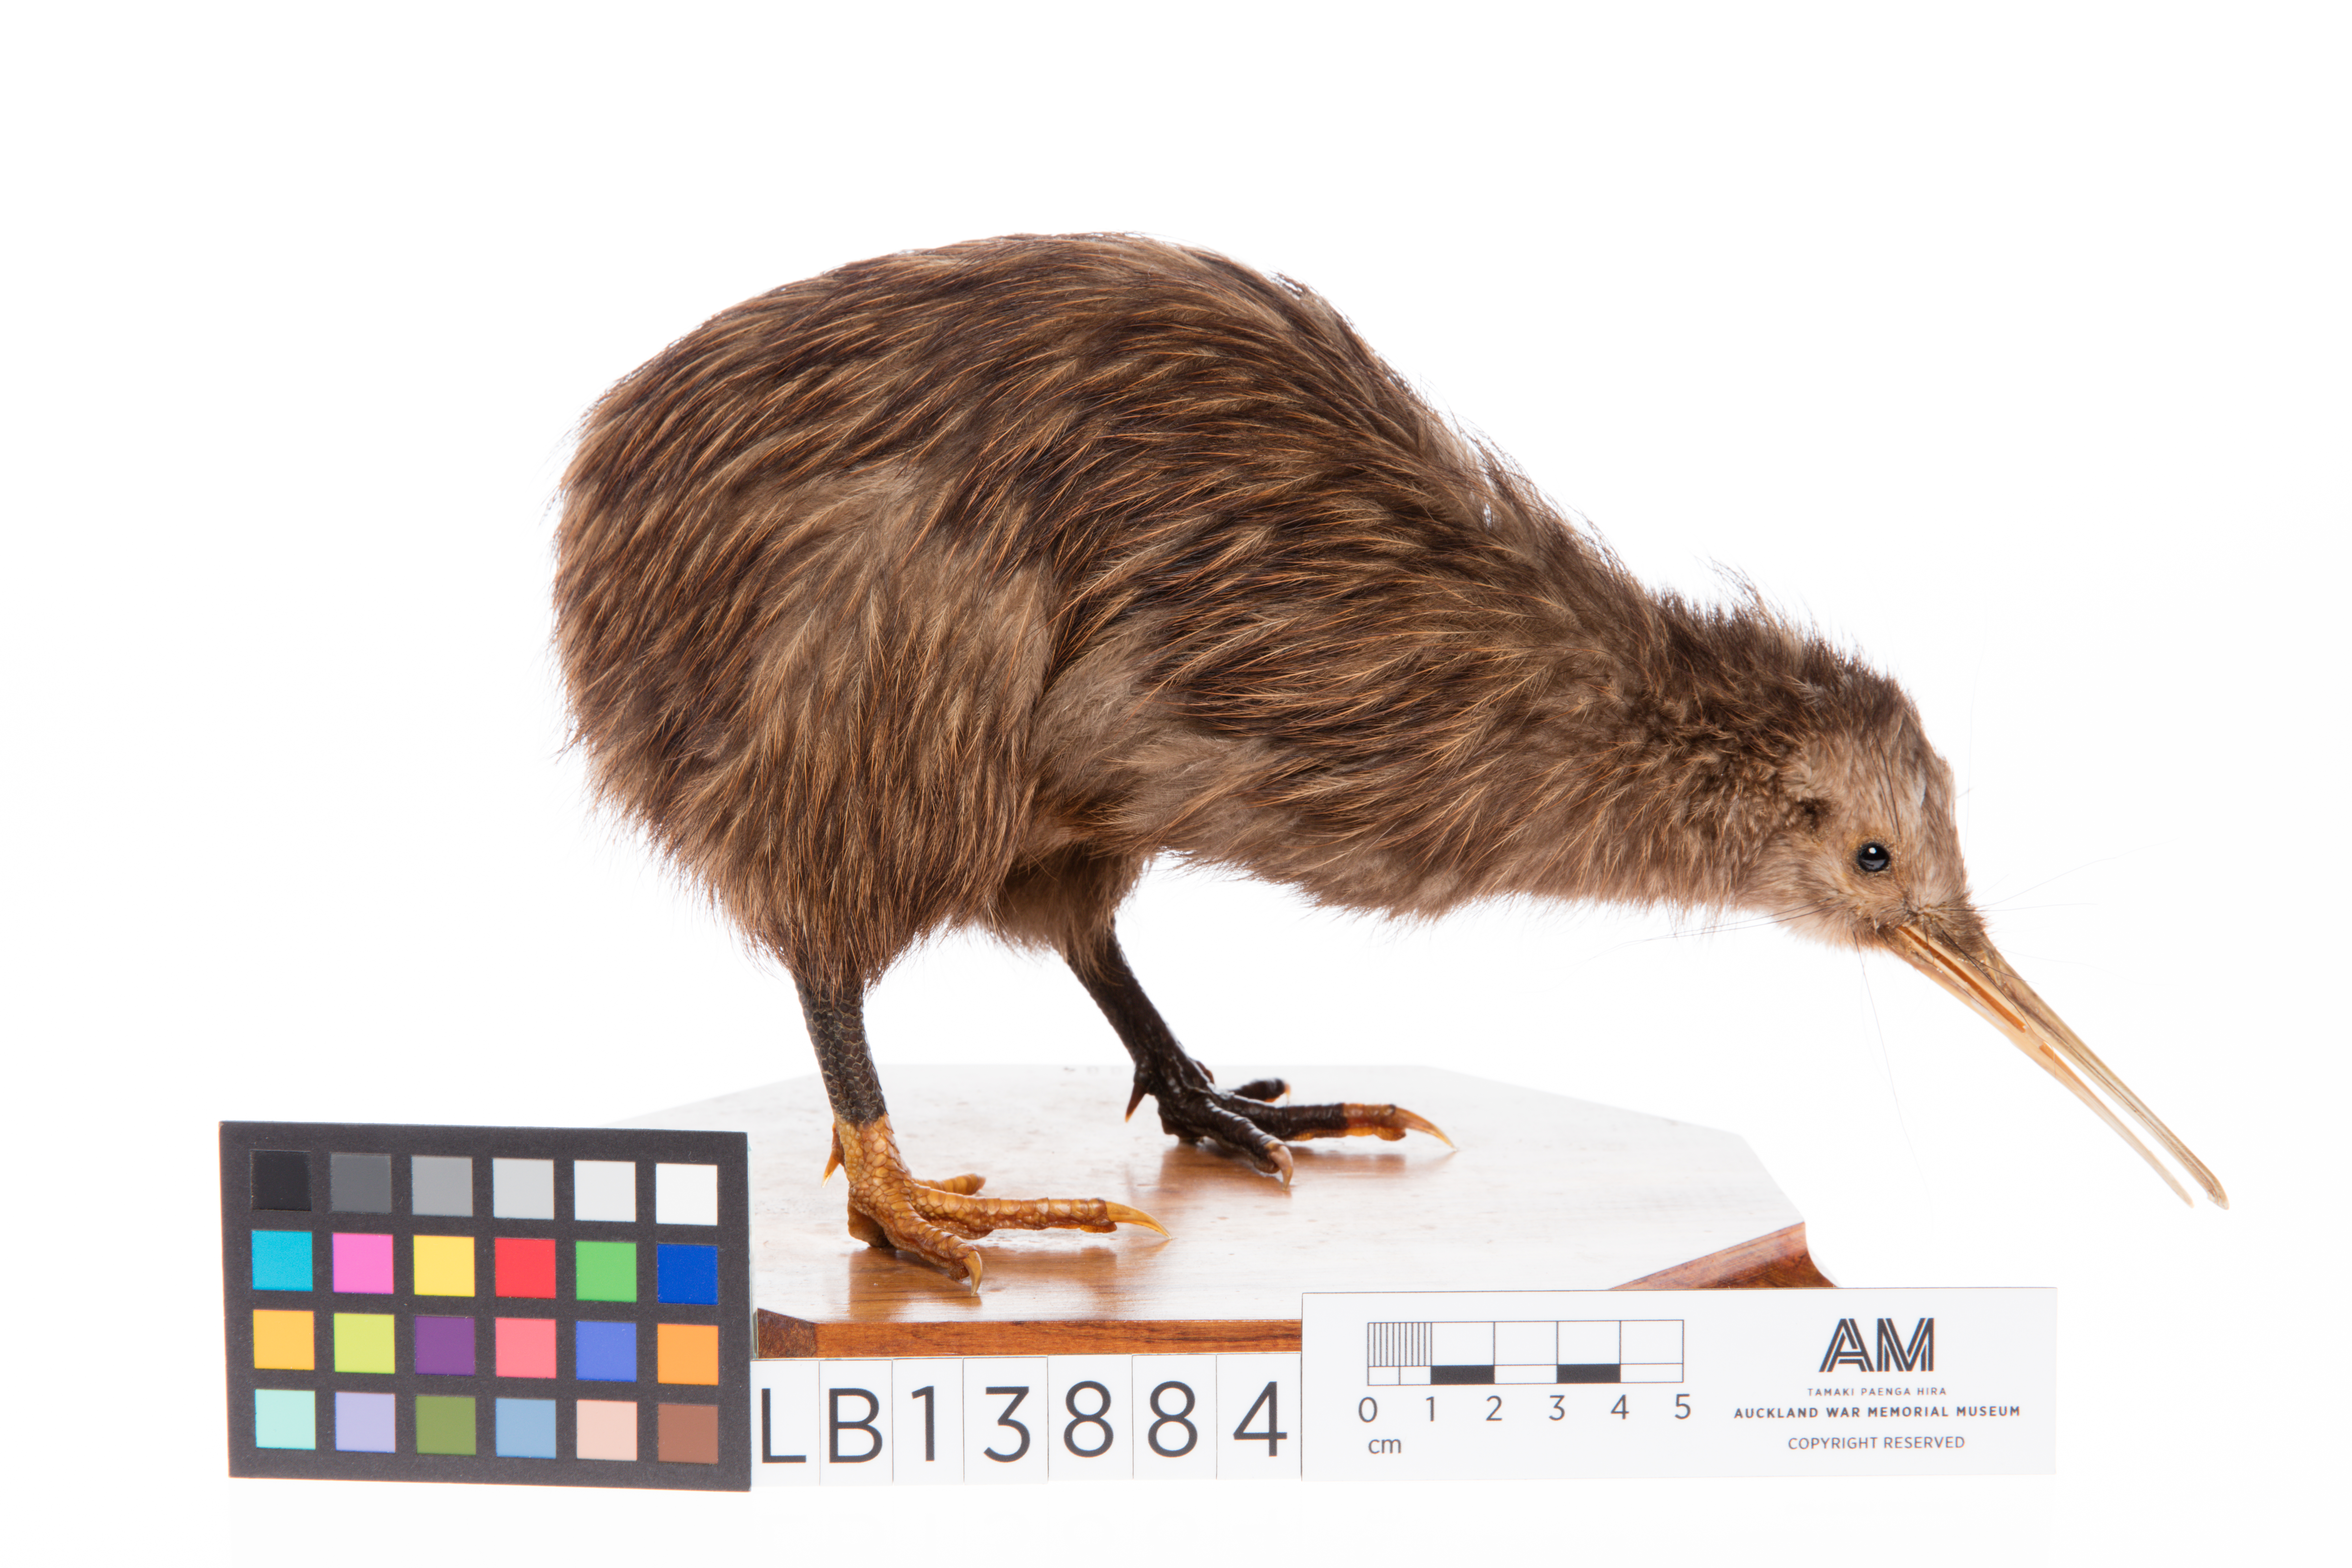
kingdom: Animalia
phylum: Chordata
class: Aves
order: Apterygiformes
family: Apterygidae
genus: Apteryx
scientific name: Apteryx mantelli
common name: North island brown kiwi
